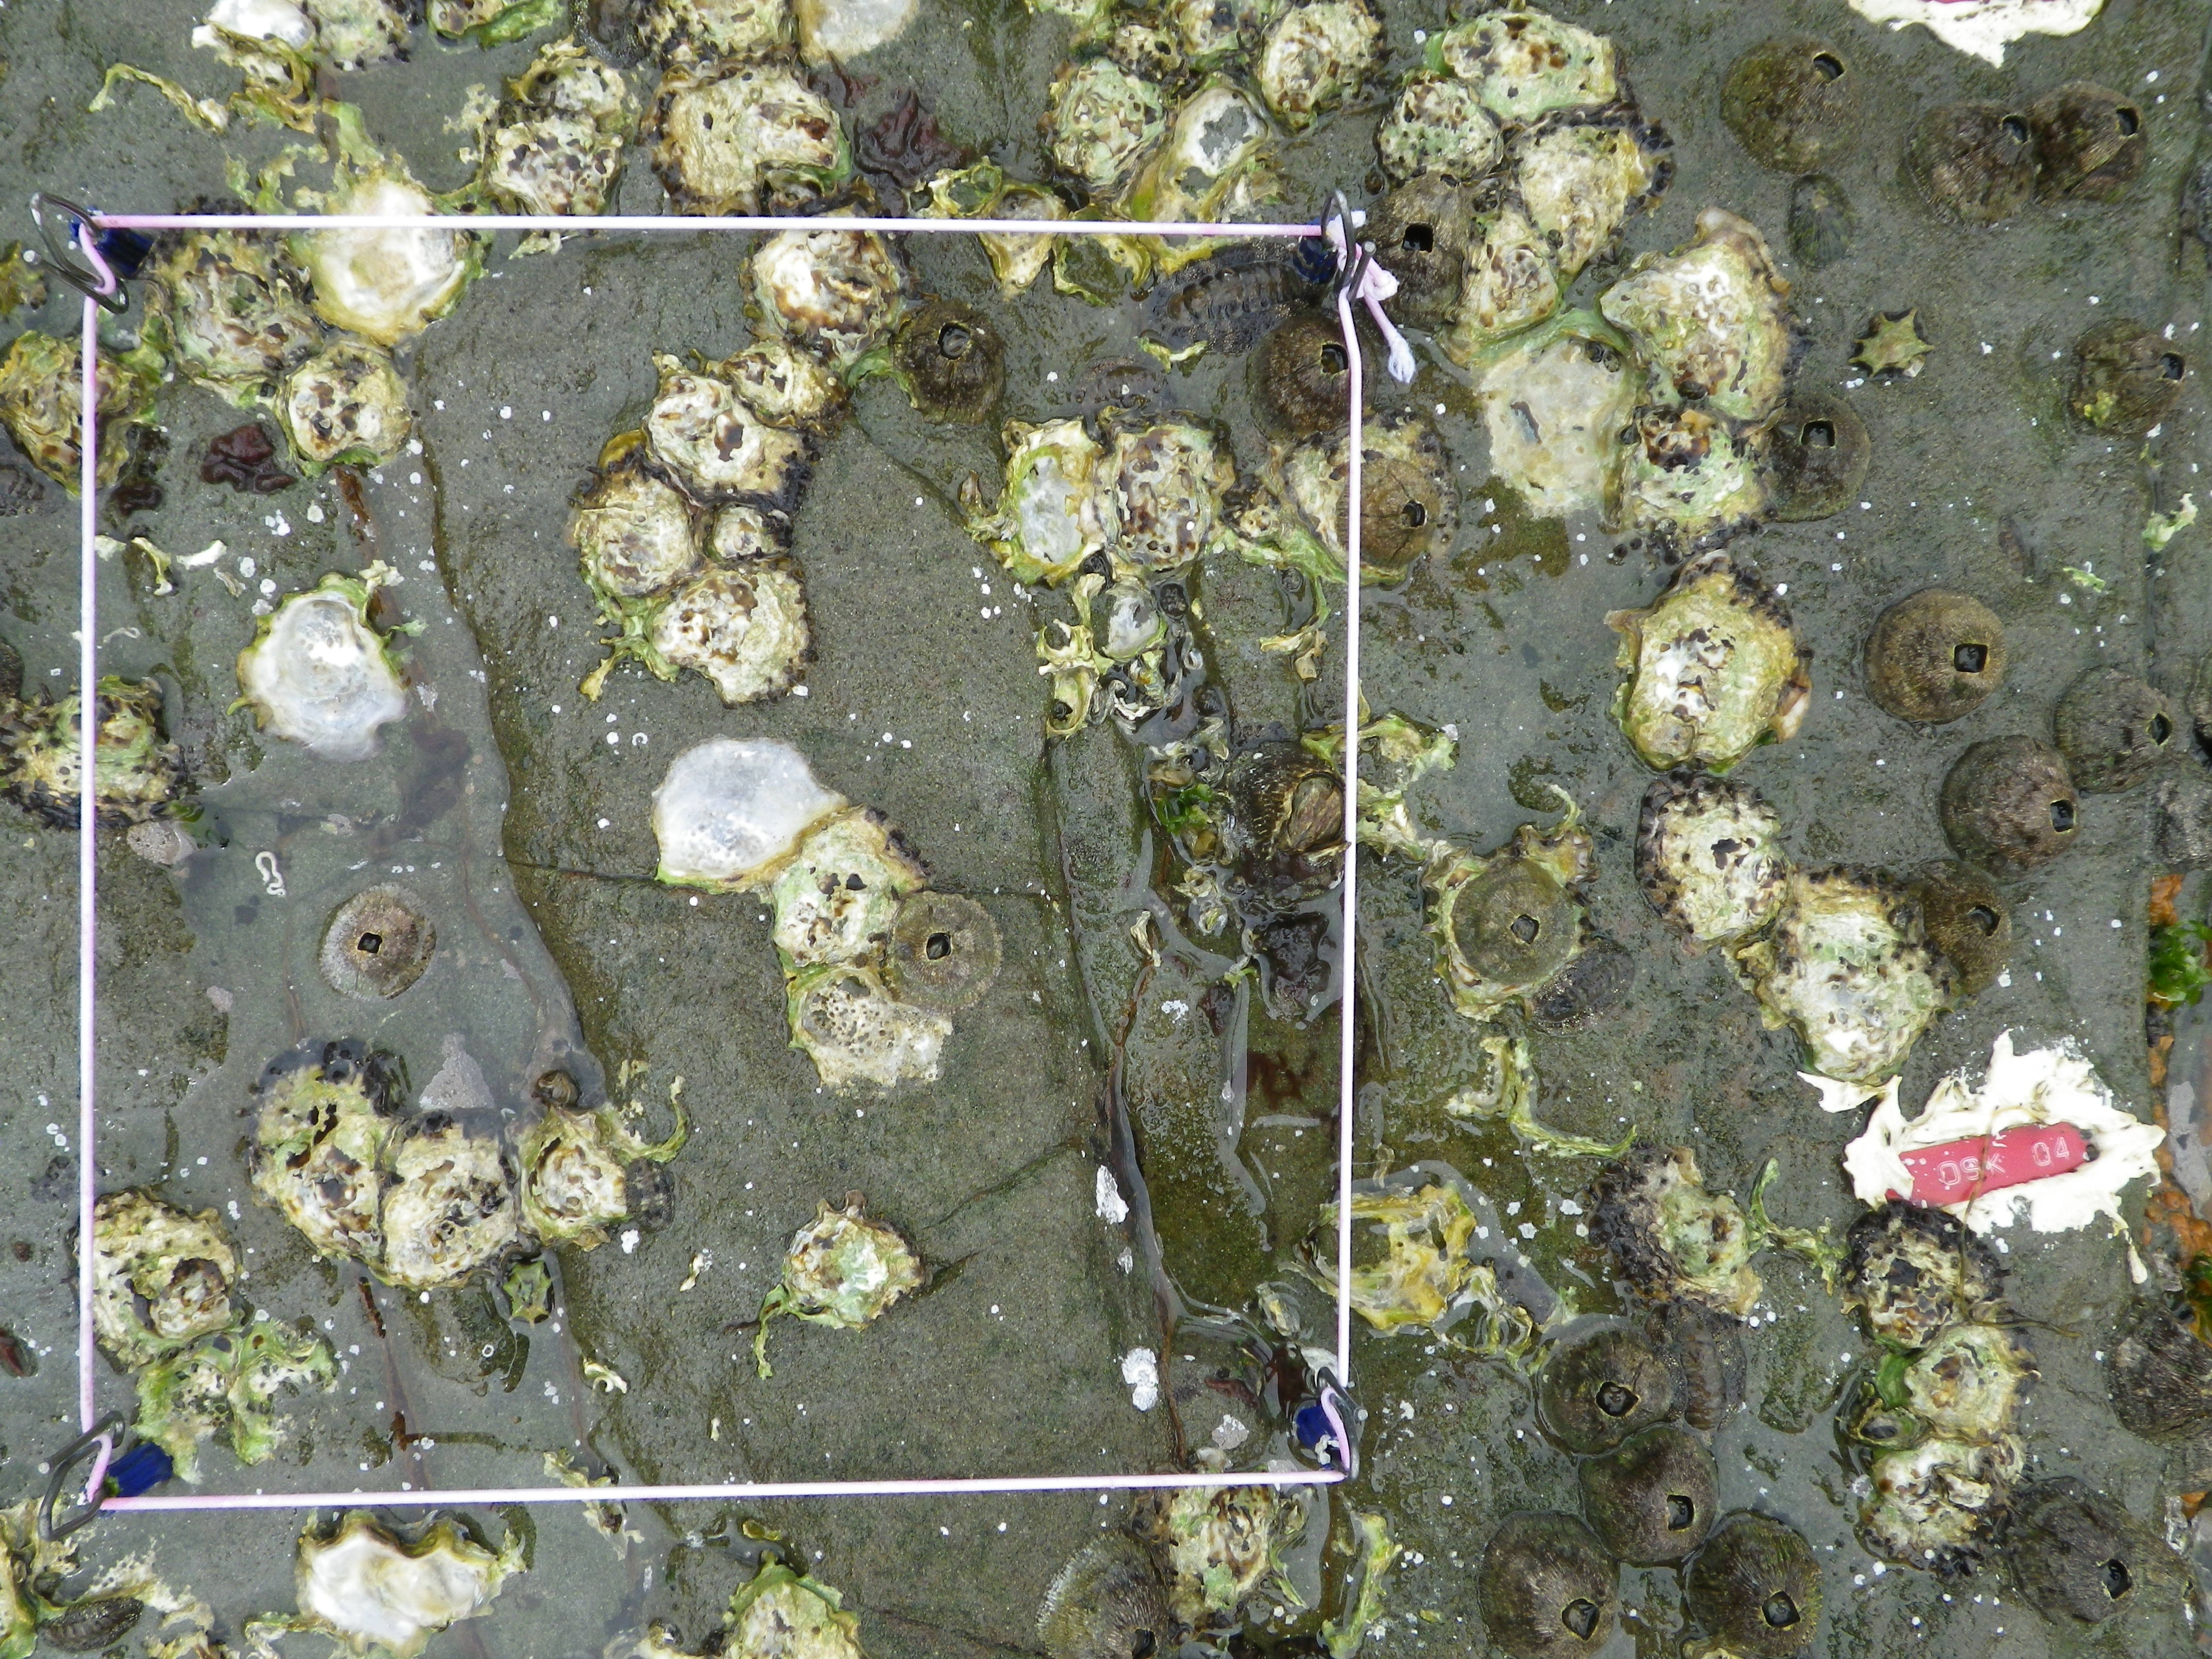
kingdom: Animalia
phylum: Arthropoda
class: Maxillopoda
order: Sessilia
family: Chthamalidae
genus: Chthamalus
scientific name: Chthamalus challengeri
